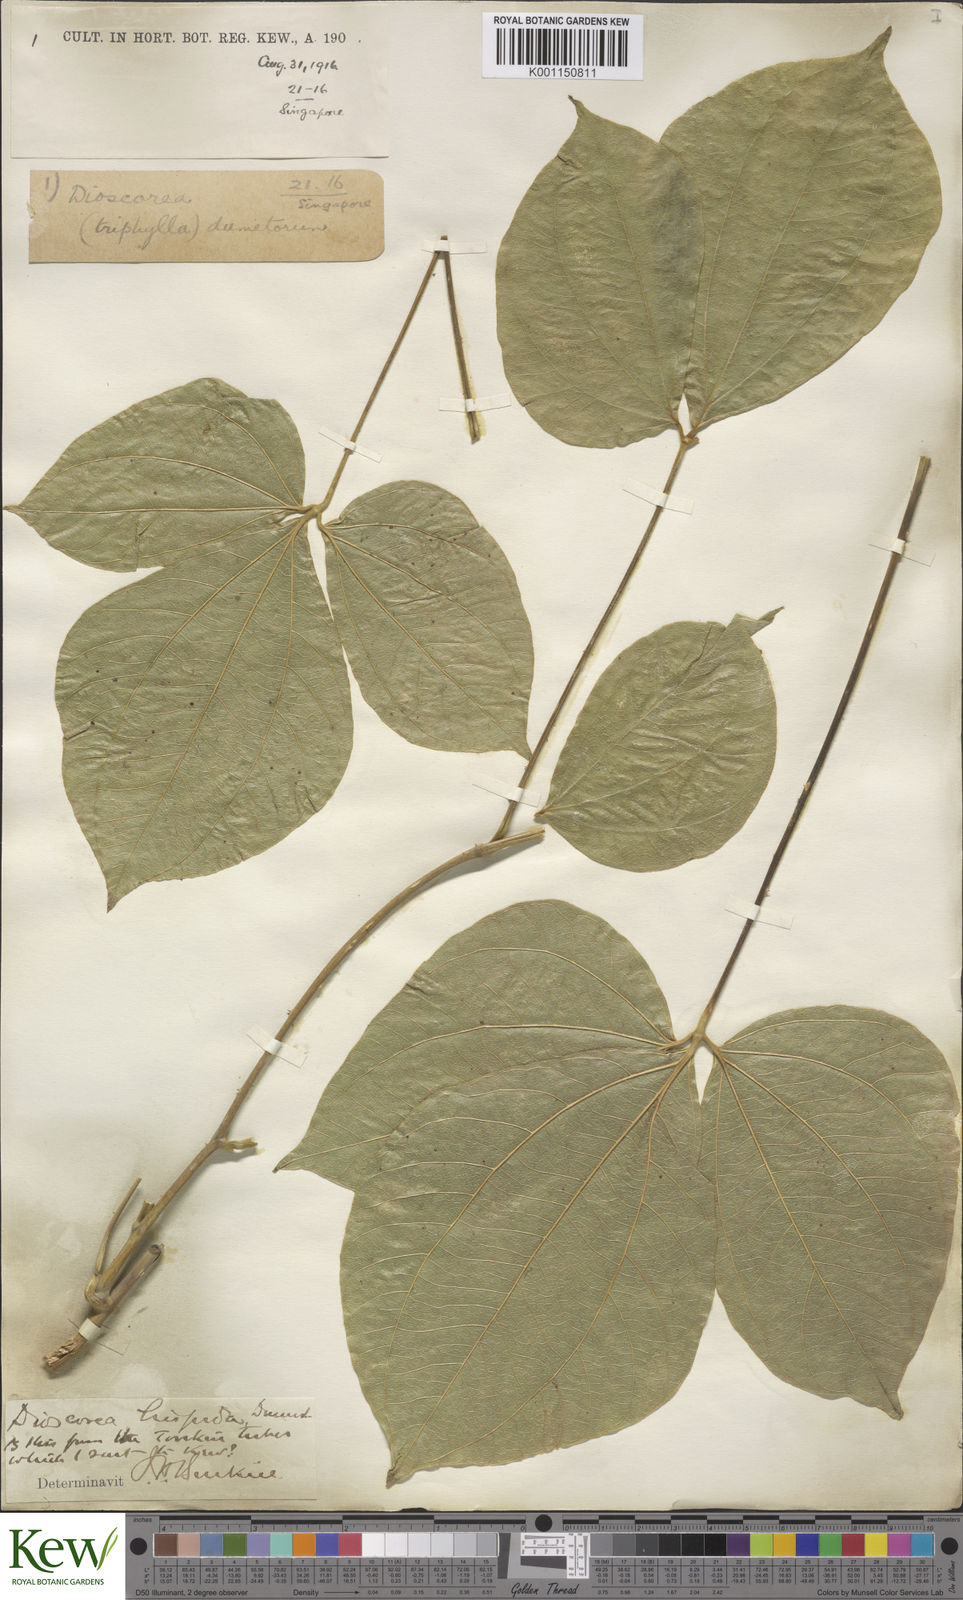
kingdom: Plantae
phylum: Tracheophyta
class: Liliopsida
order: Dioscoreales
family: Dioscoreaceae
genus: Dioscorea
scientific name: Dioscorea hispida
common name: Asiatic bitter yam
